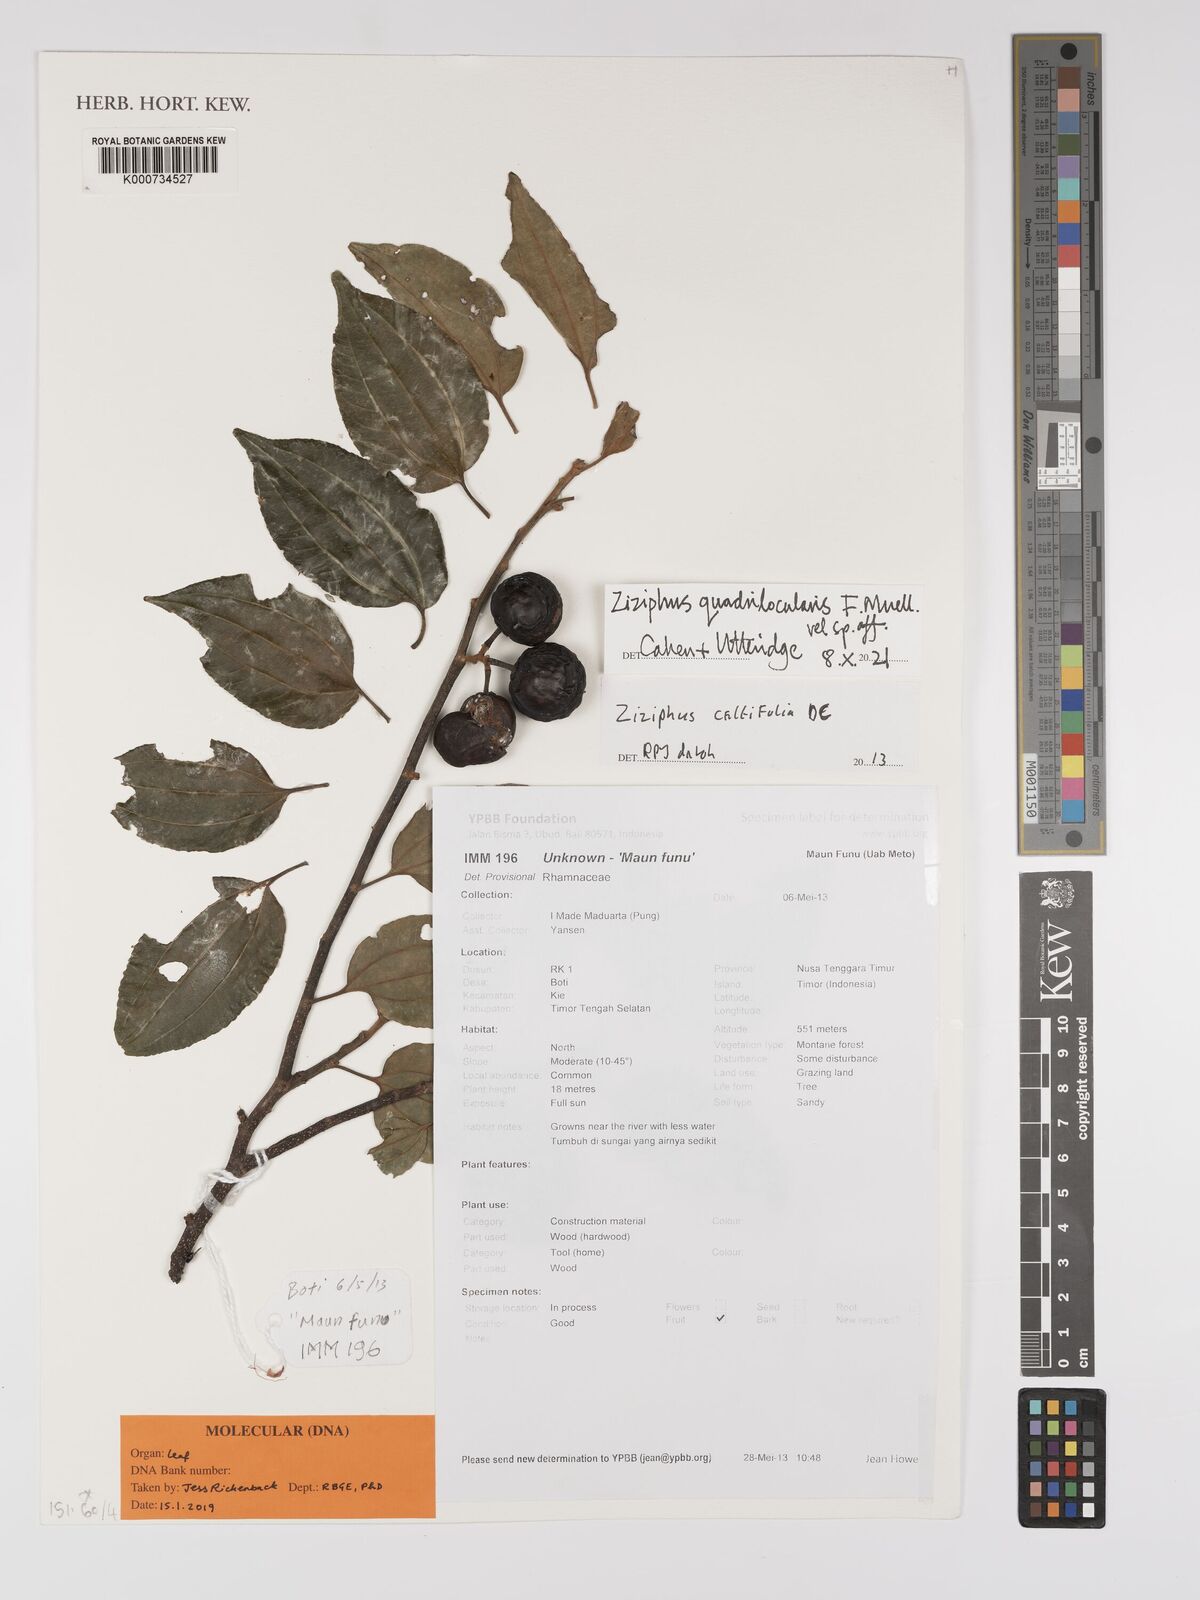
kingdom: Plantae
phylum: Tracheophyta
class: Magnoliopsida
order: Rosales
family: Rhamnaceae
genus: Ziziphus
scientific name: Ziziphus oenopolia
